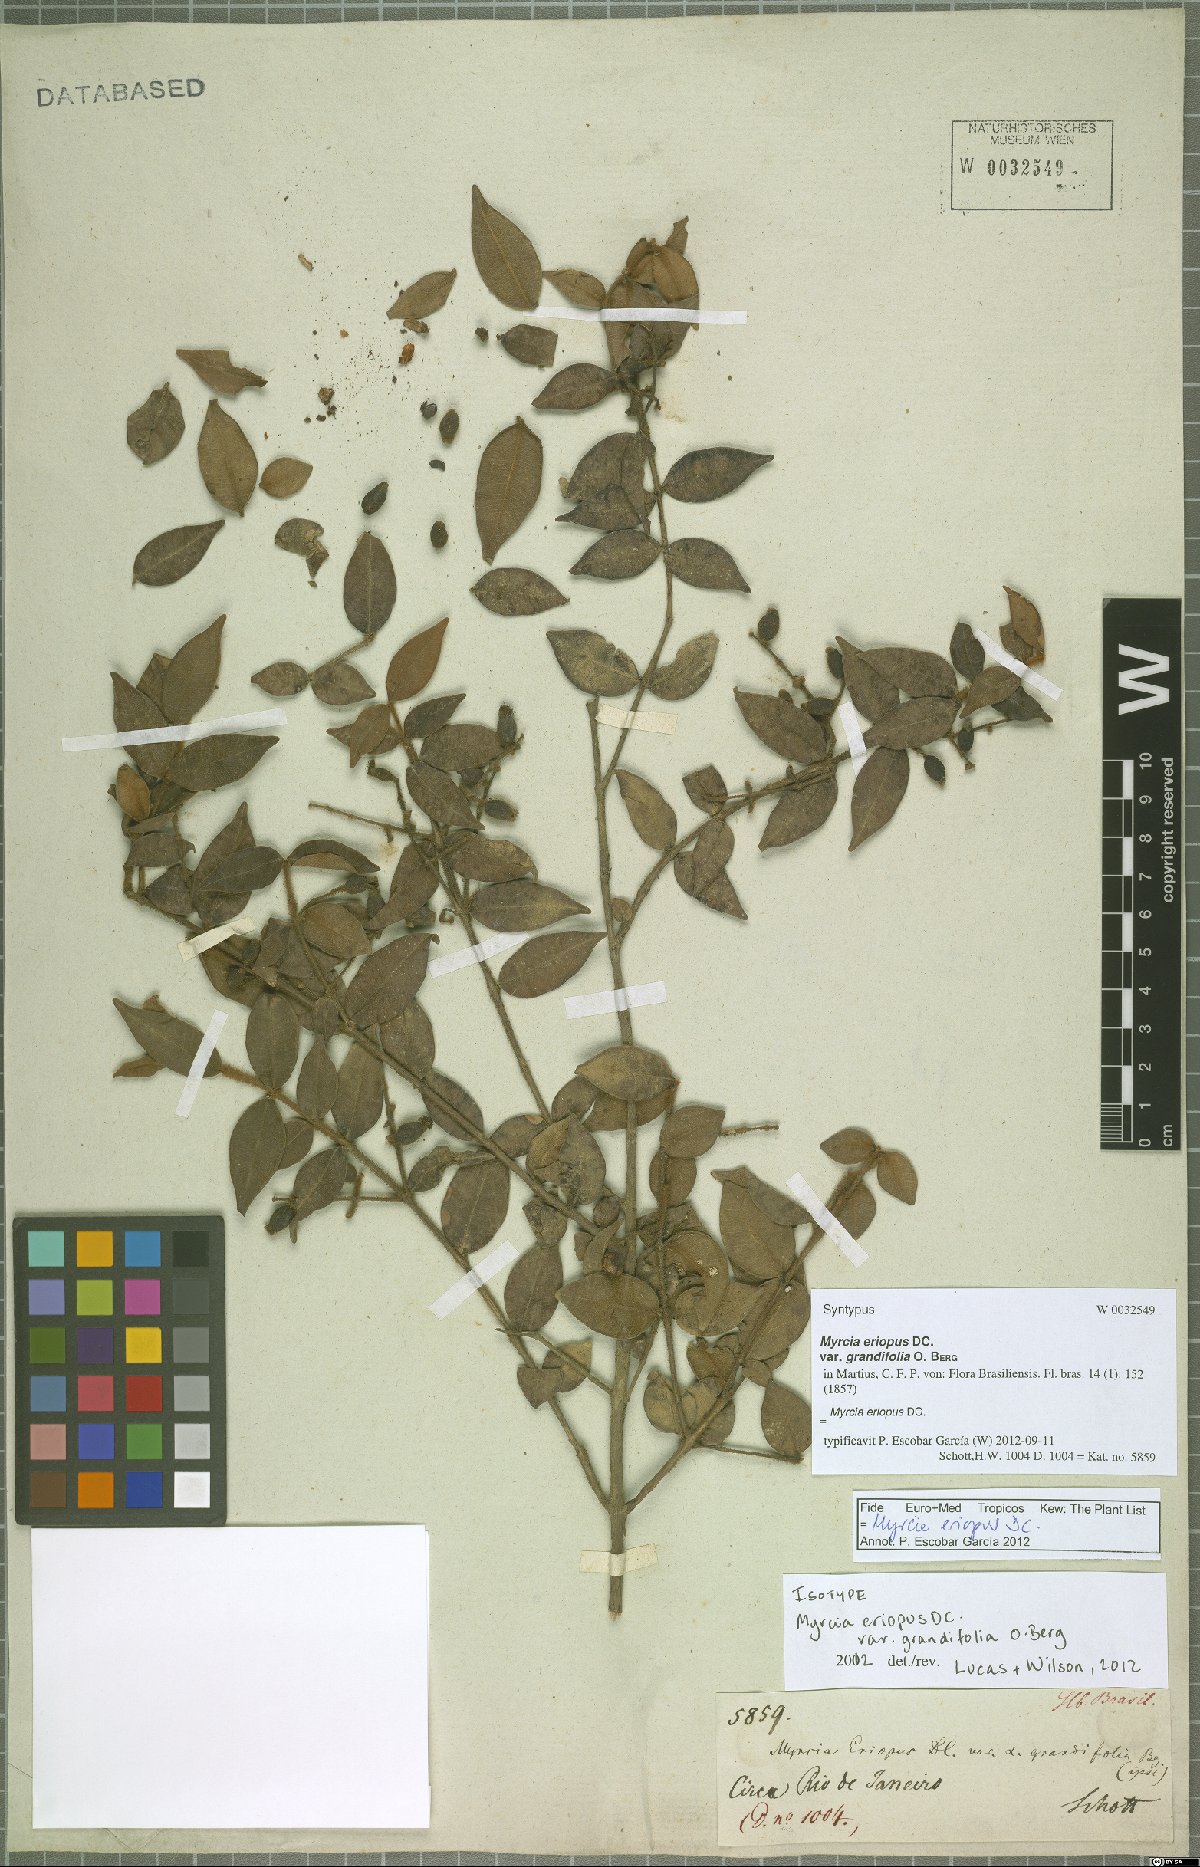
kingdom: Plantae
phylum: Tracheophyta
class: Magnoliopsida
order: Myrtales
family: Myrtaceae
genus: Myrcia
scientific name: Myrcia eriopus
